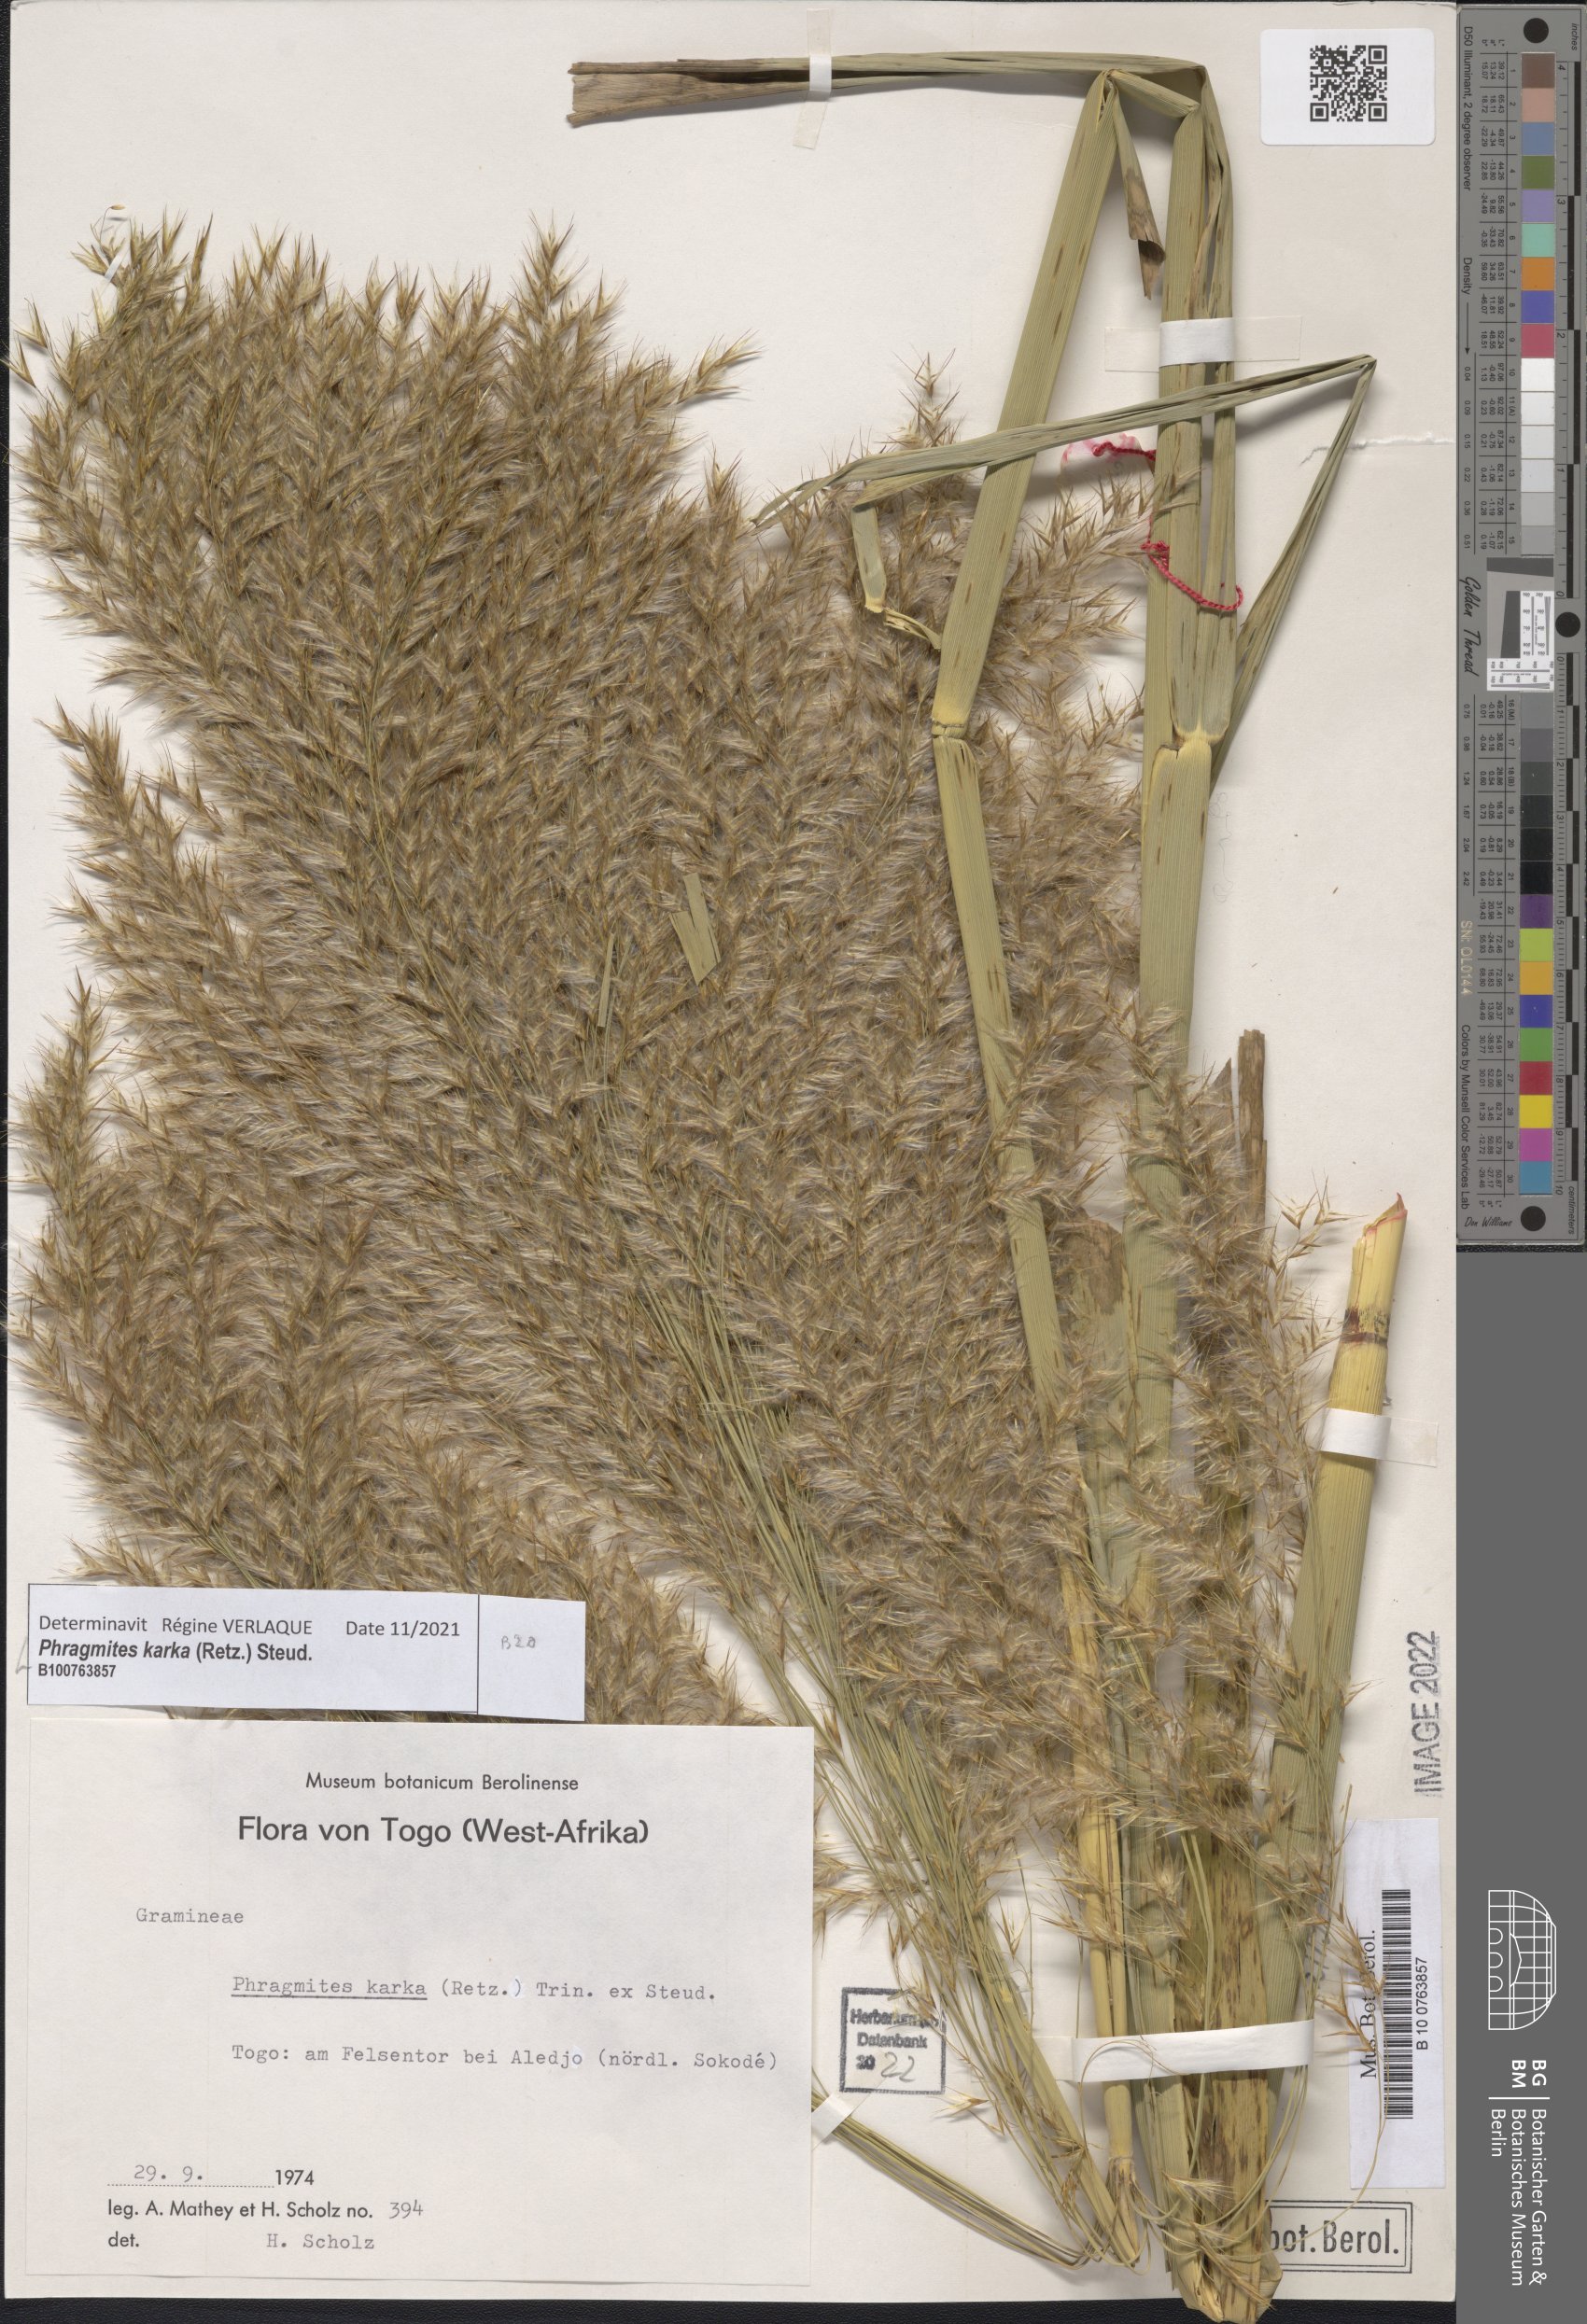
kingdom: Plantae
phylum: Tracheophyta
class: Liliopsida
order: Poales
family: Poaceae
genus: Phragmites
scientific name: Phragmites karka
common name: Tropical reed
